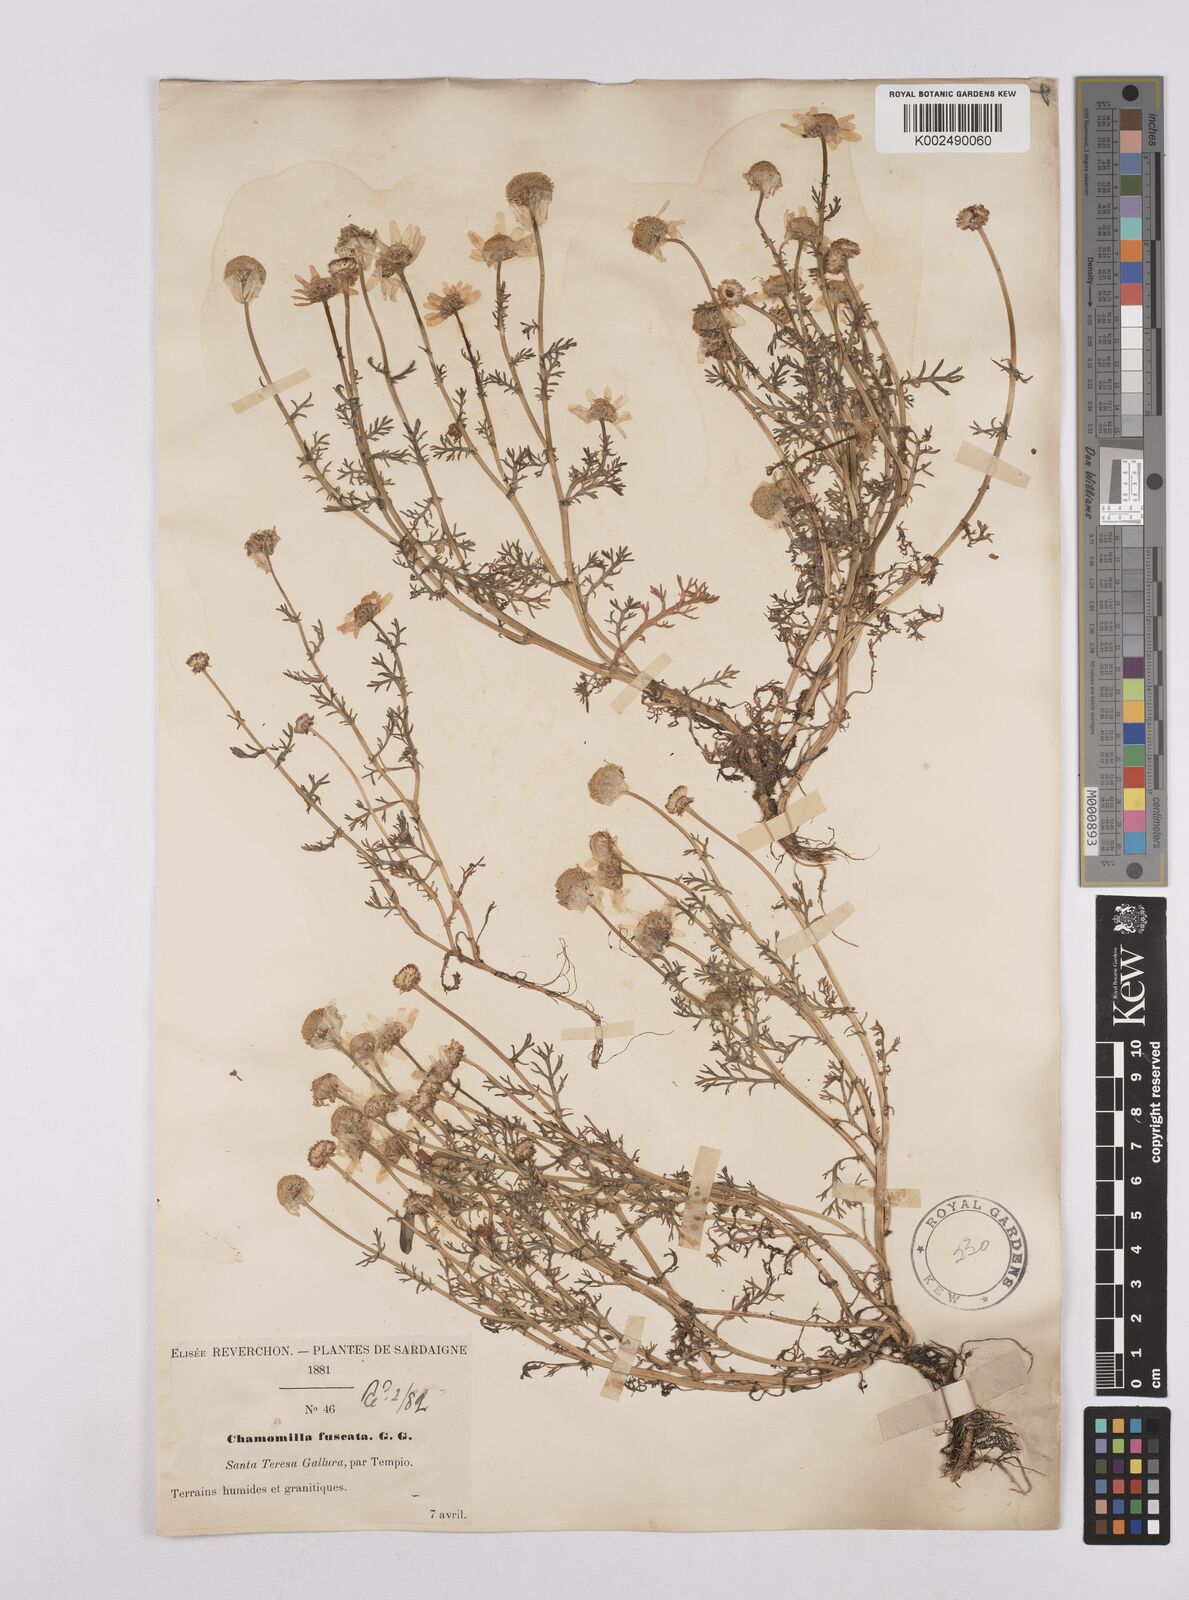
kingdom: Plantae
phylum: Tracheophyta
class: Magnoliopsida
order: Asterales
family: Asteraceae
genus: Chamaemelum
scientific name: Chamaemelum fuscatum
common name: Chamomile
